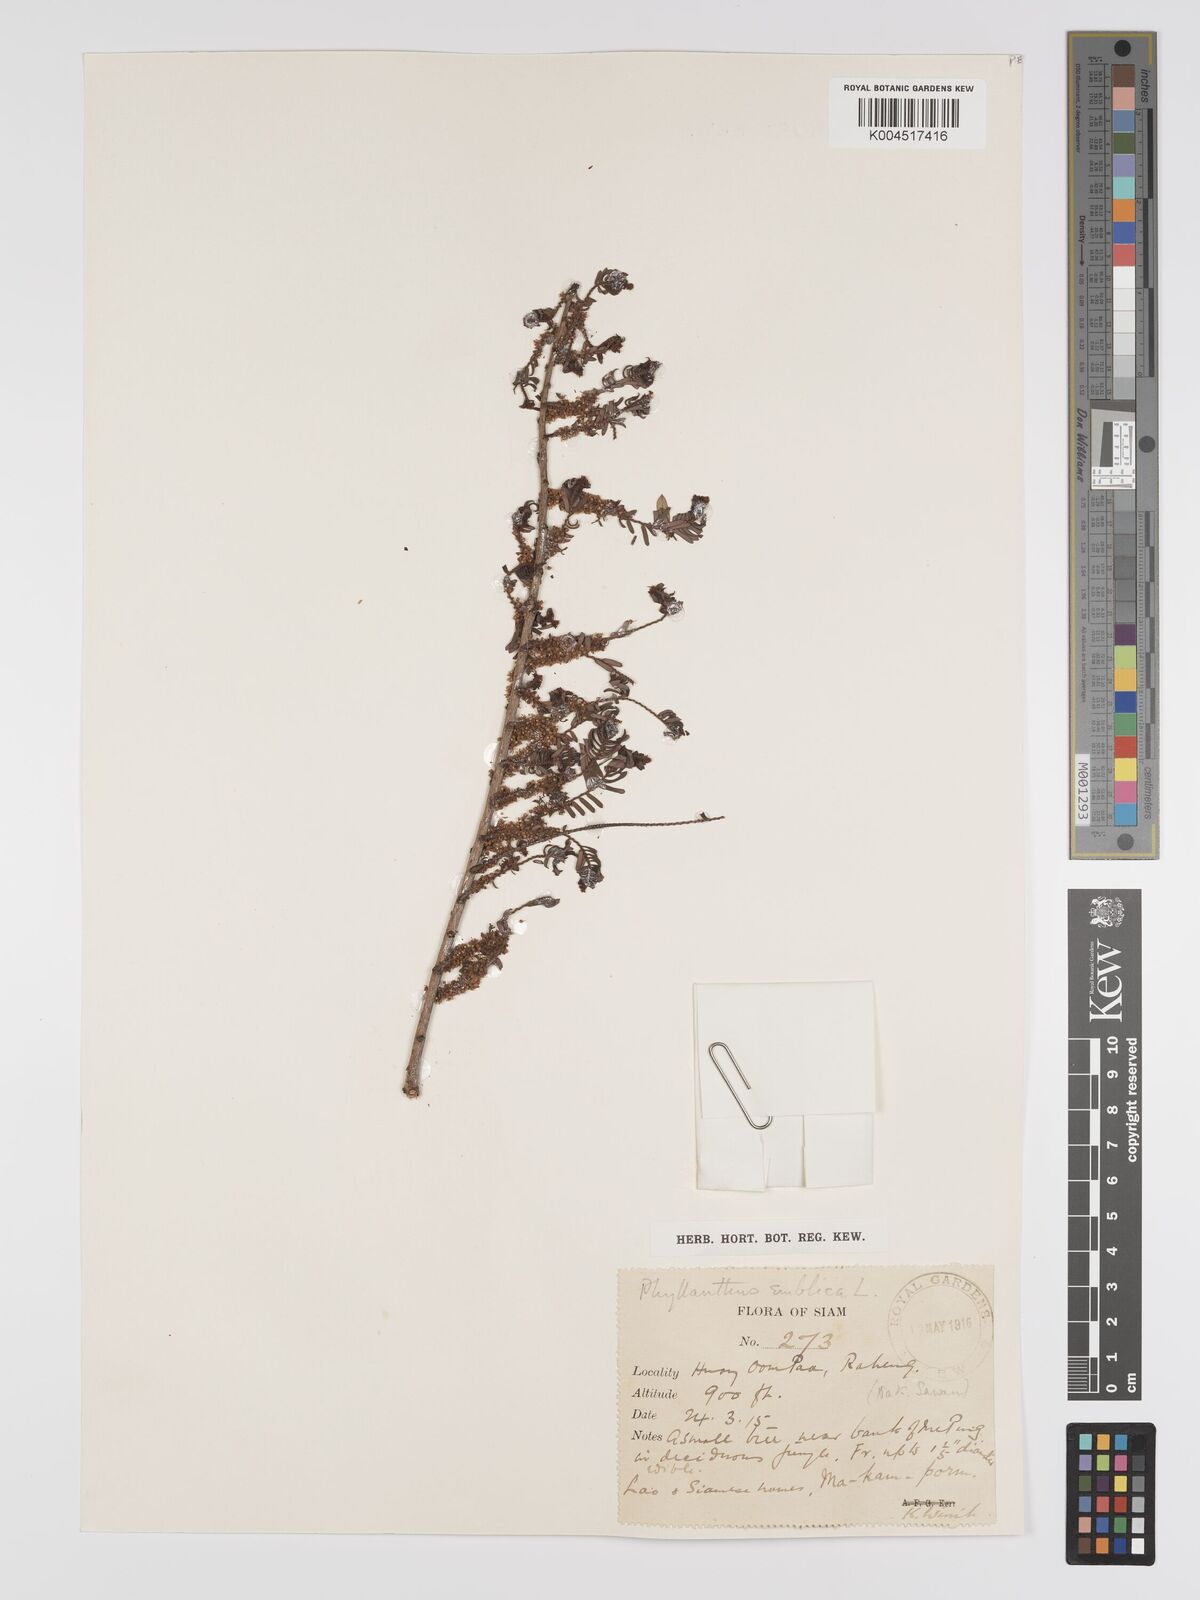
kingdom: Plantae
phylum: Tracheophyta
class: Magnoliopsida
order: Malpighiales
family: Phyllanthaceae
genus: Phyllanthus
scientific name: Phyllanthus emblica
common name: Indian gooseberry
